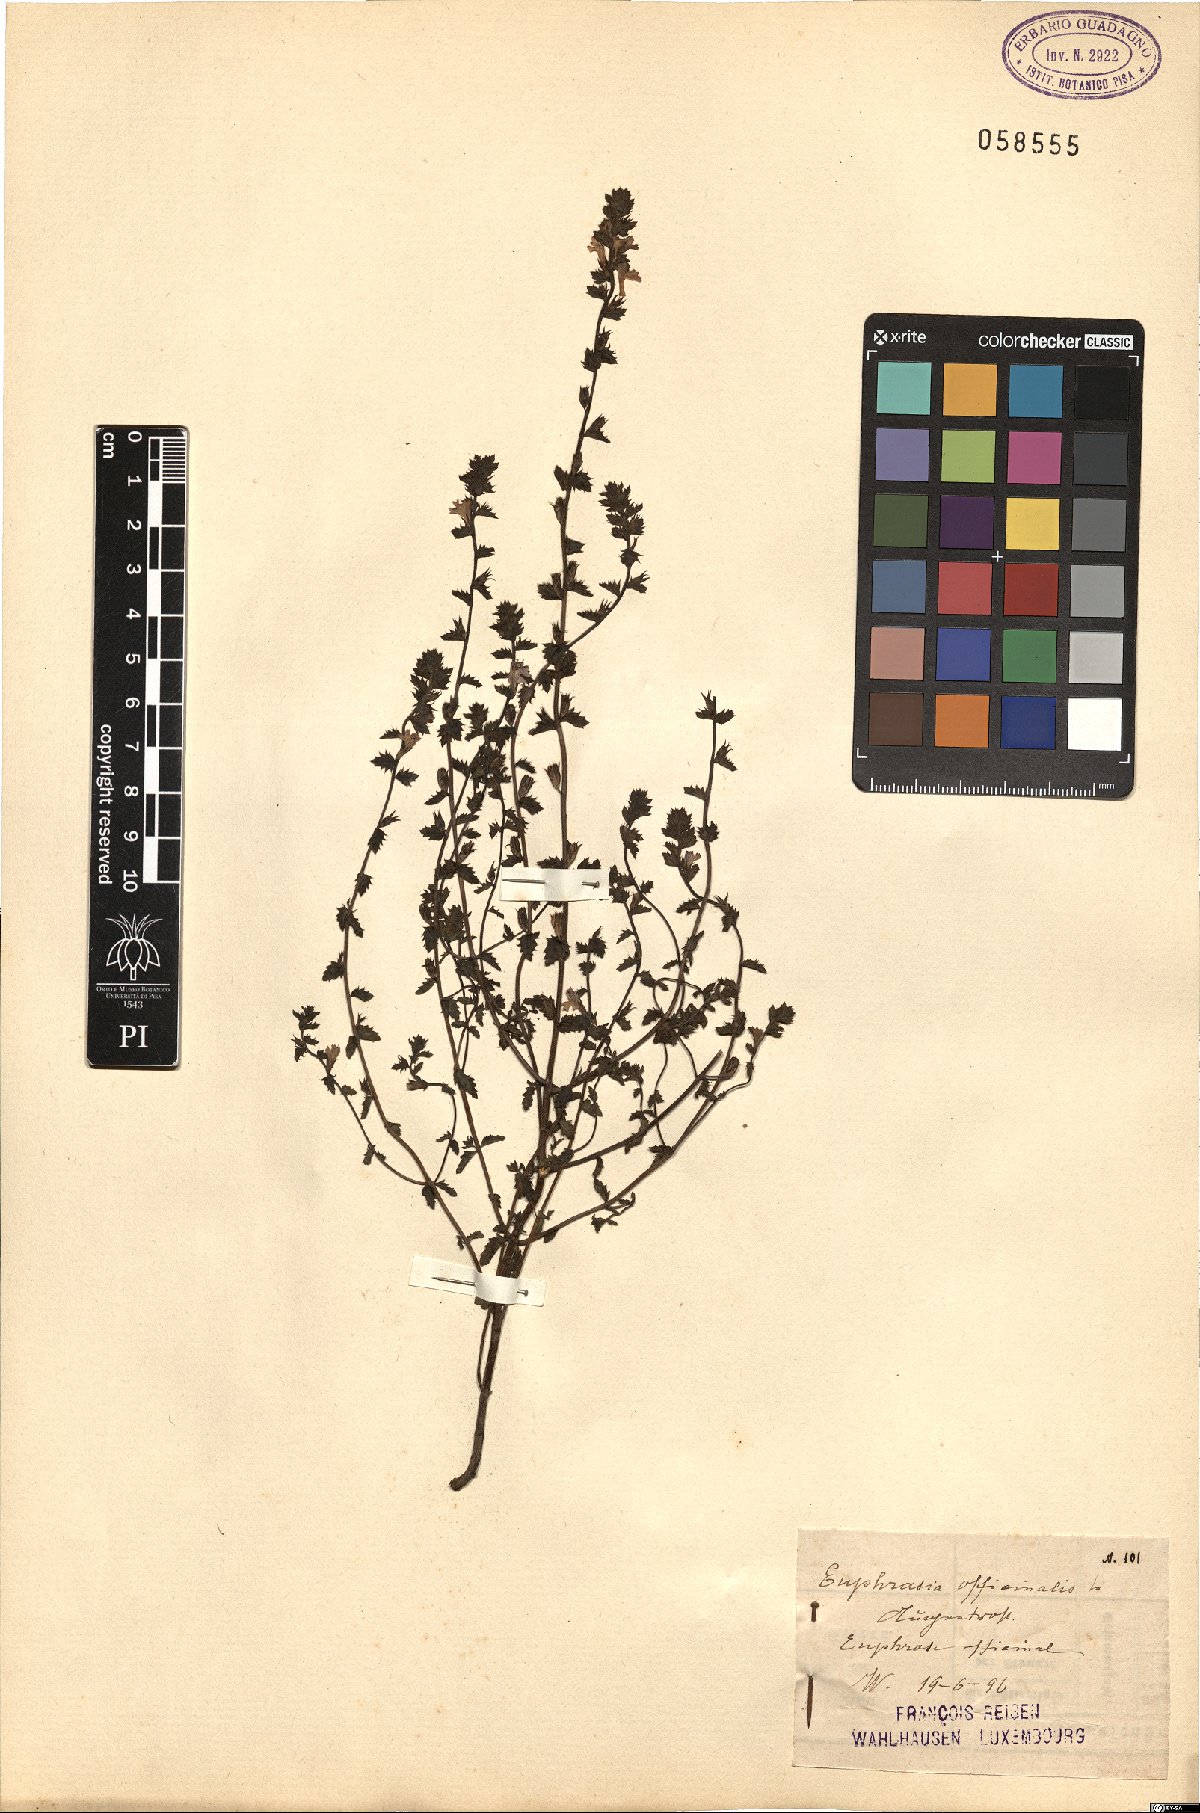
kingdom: Plantae
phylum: Tracheophyta
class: Magnoliopsida
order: Lamiales
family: Orobanchaceae
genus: Euphrasia
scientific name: Euphrasia officinalis
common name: Eyebright
